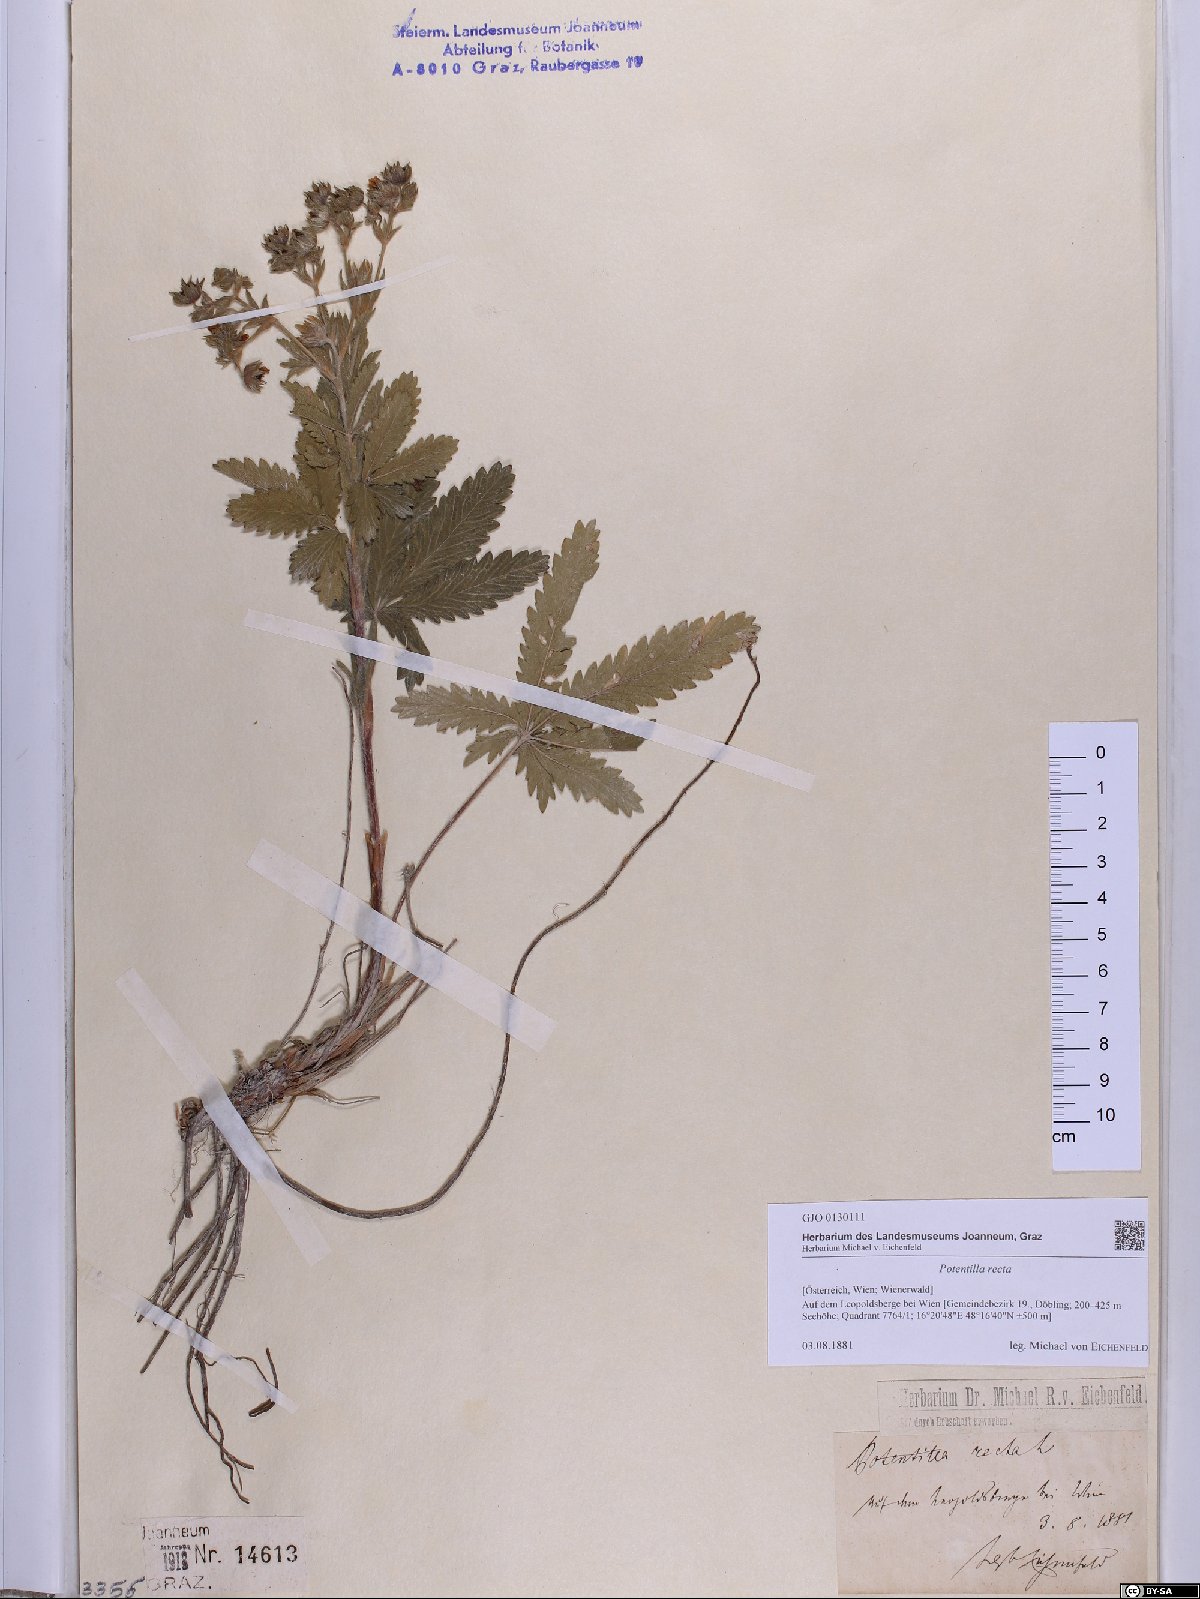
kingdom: Plantae
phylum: Tracheophyta
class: Magnoliopsida
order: Rosales
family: Rosaceae
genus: Potentilla
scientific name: Potentilla recta
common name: Sulphur cinquefoil
